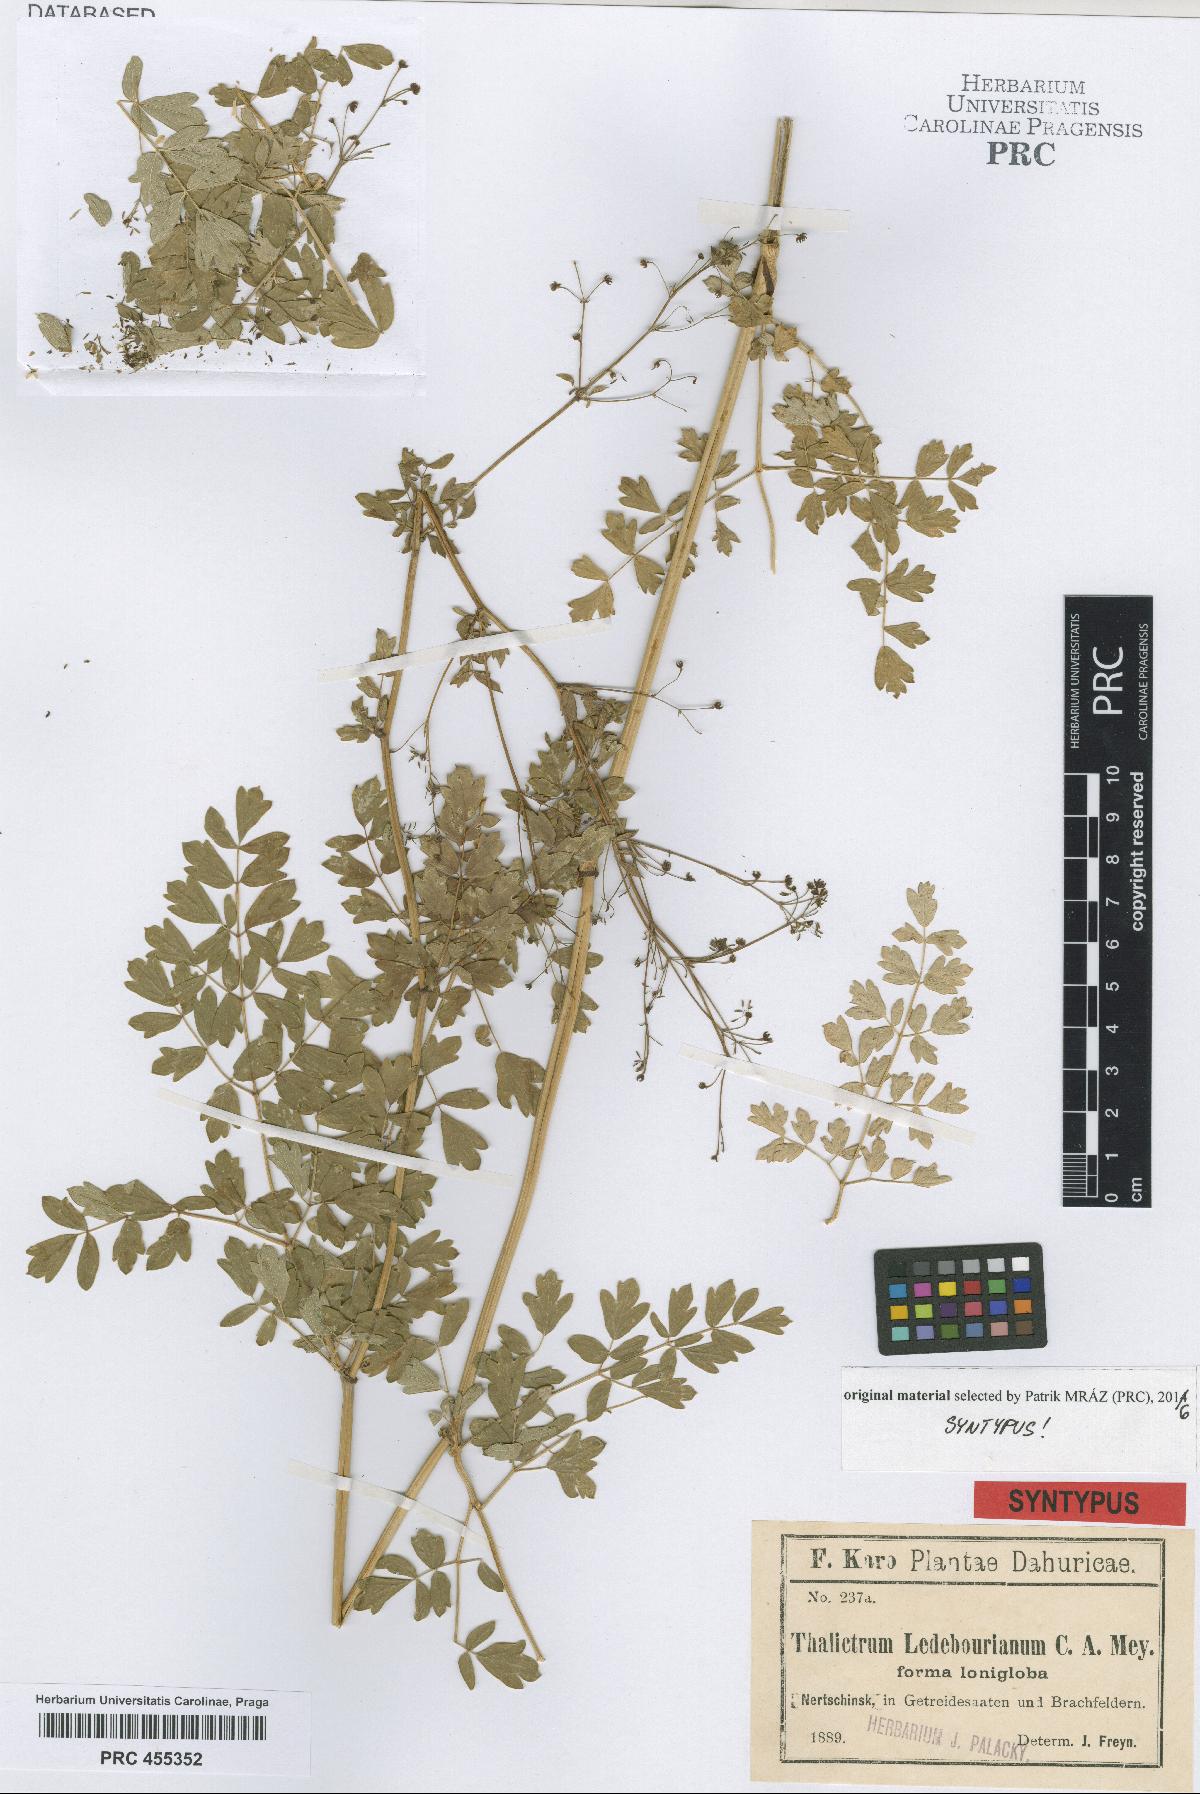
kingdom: Plantae
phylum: Tracheophyta
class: Magnoliopsida
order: Ranunculales
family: Ranunculaceae
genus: Thalictrum
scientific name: Thalictrum squarrosum
